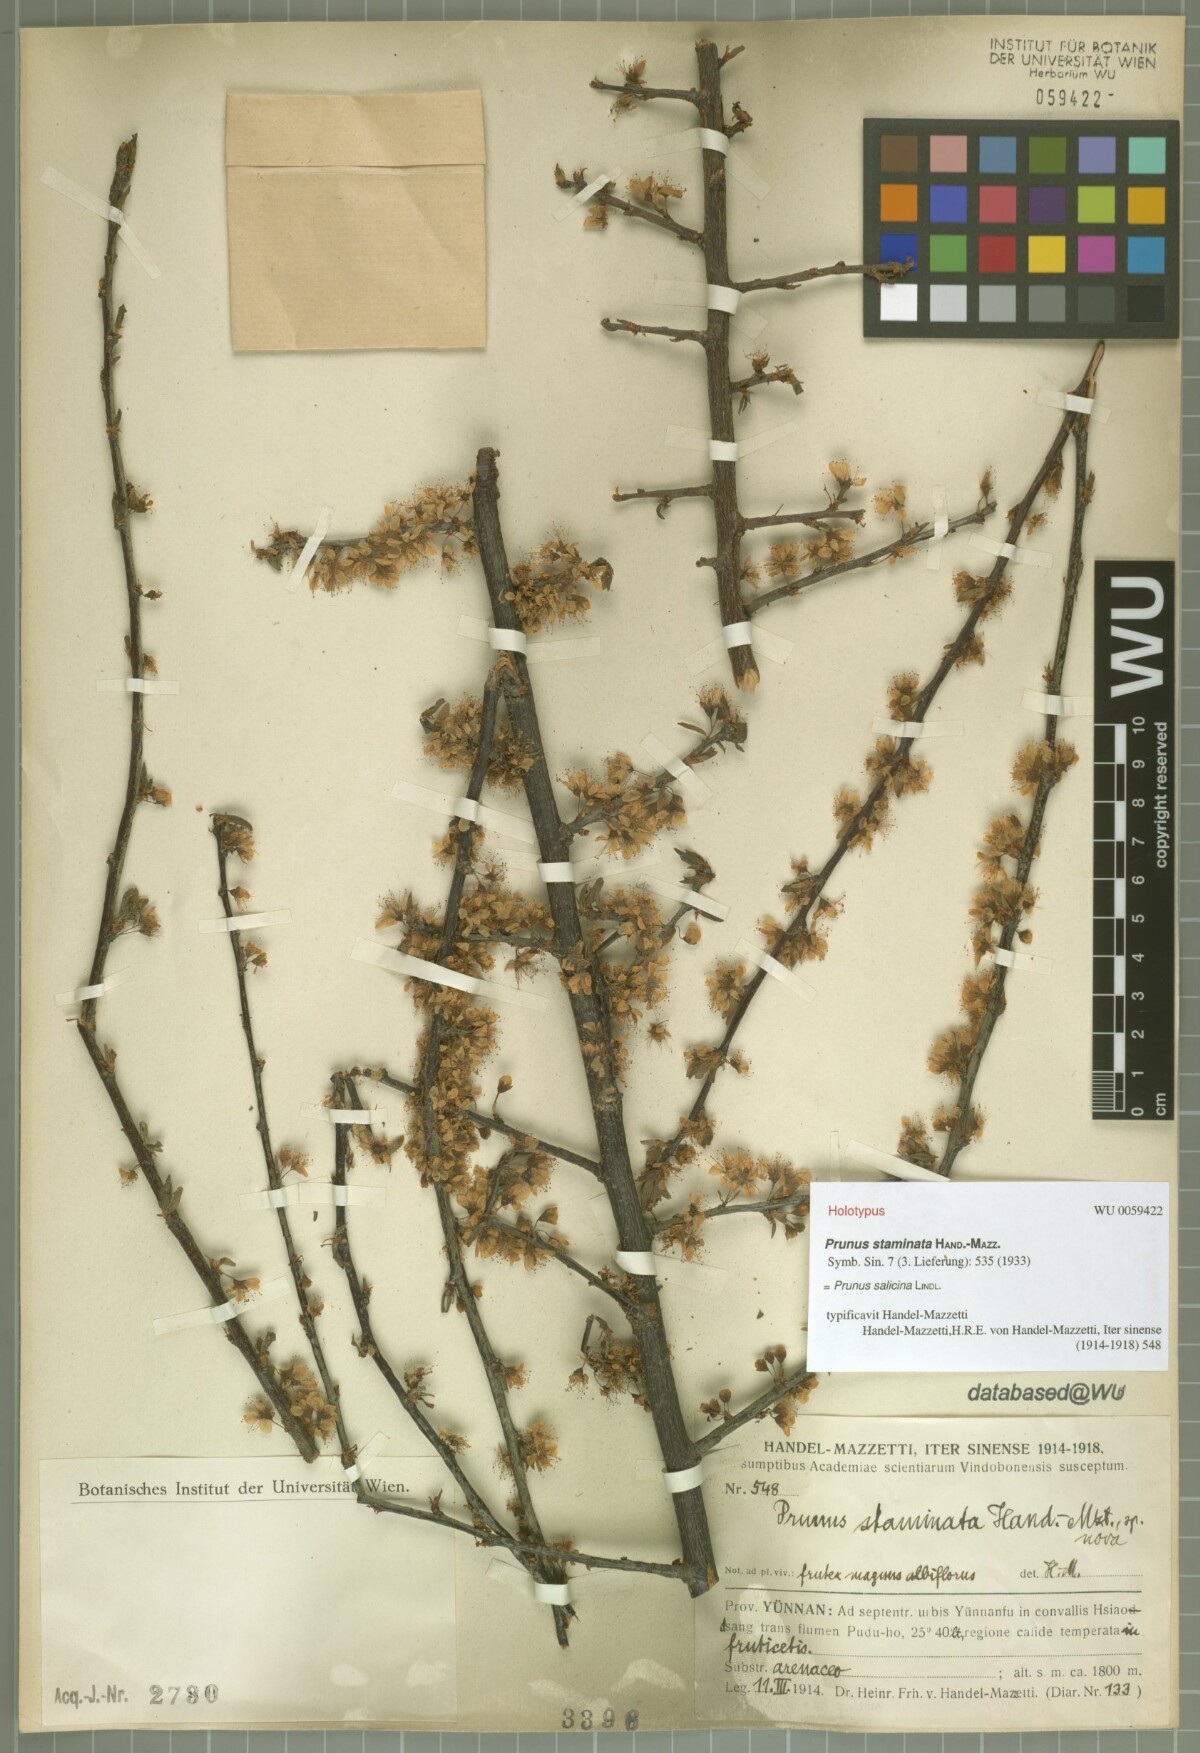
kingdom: Plantae
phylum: Tracheophyta
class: Magnoliopsida
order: Rosales
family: Rosaceae
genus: Prunus
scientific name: Prunus salicina
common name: Asian plum
